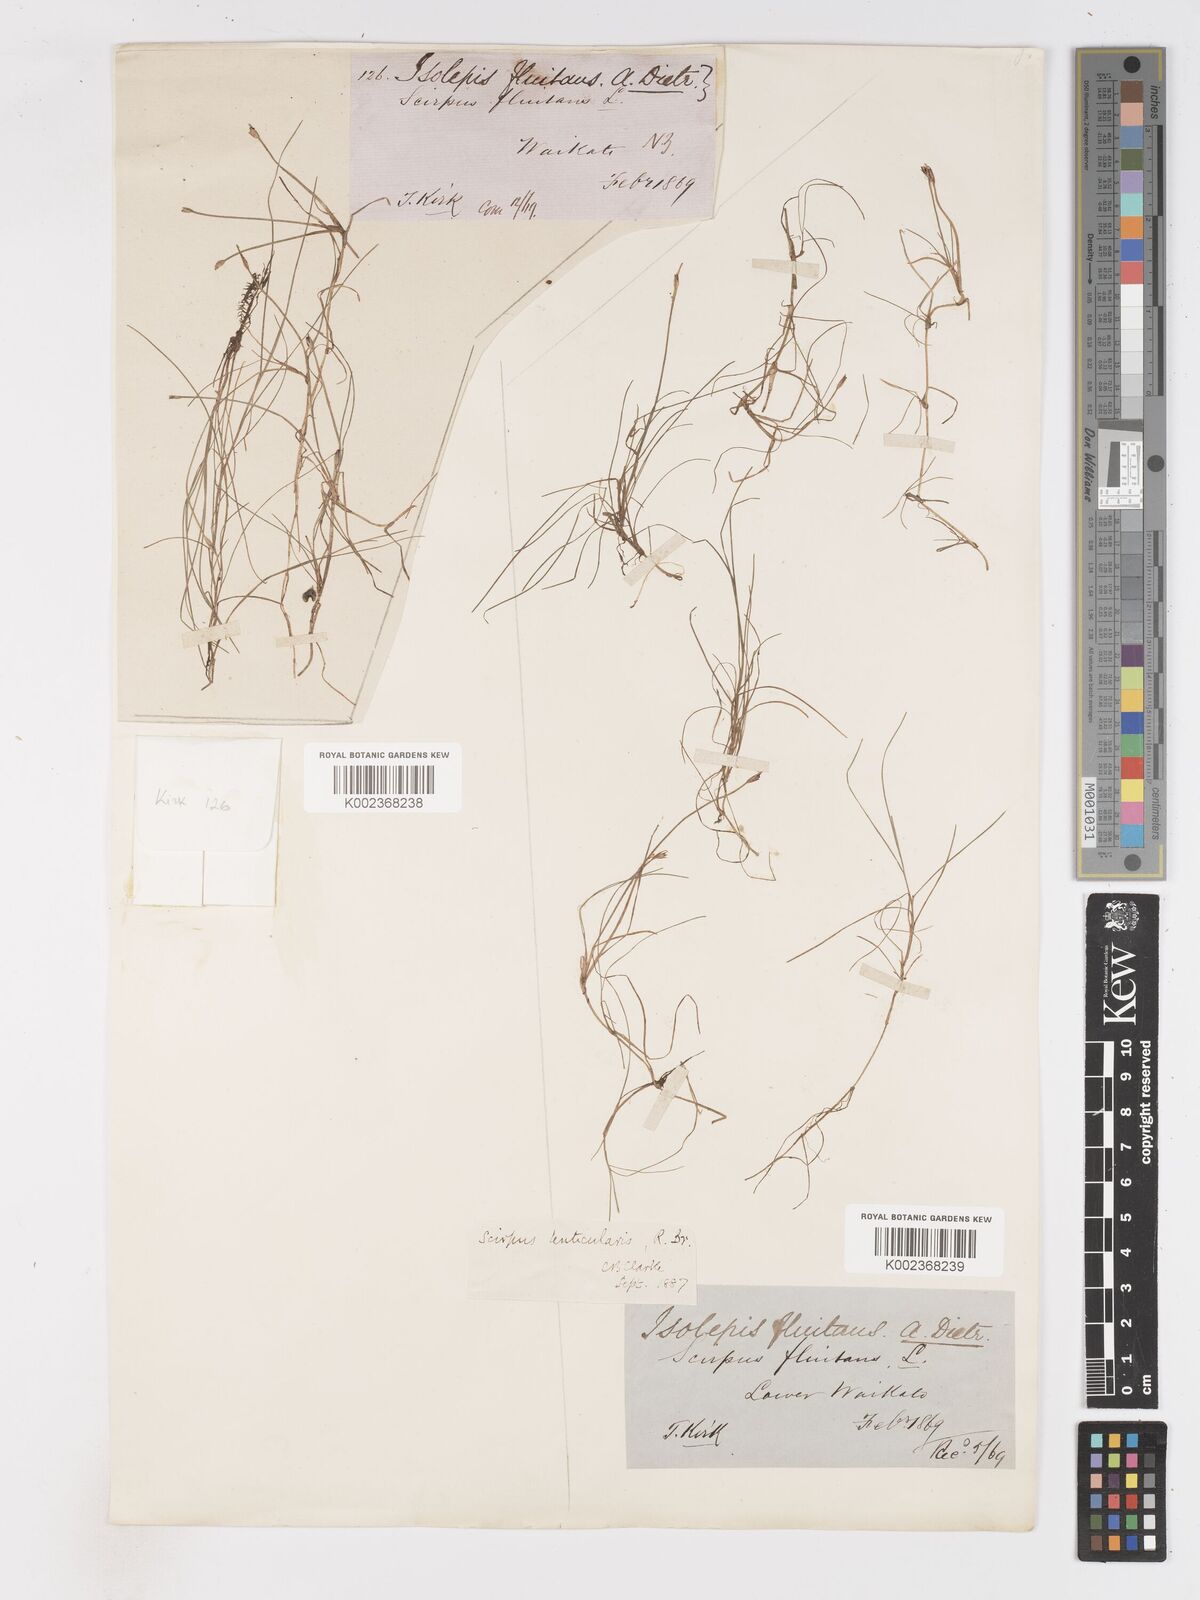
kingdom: Plantae
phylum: Tracheophyta
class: Liliopsida
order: Poales
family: Cyperaceae
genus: Isolepis
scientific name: Isolepis fluitans
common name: Floating club-rush
